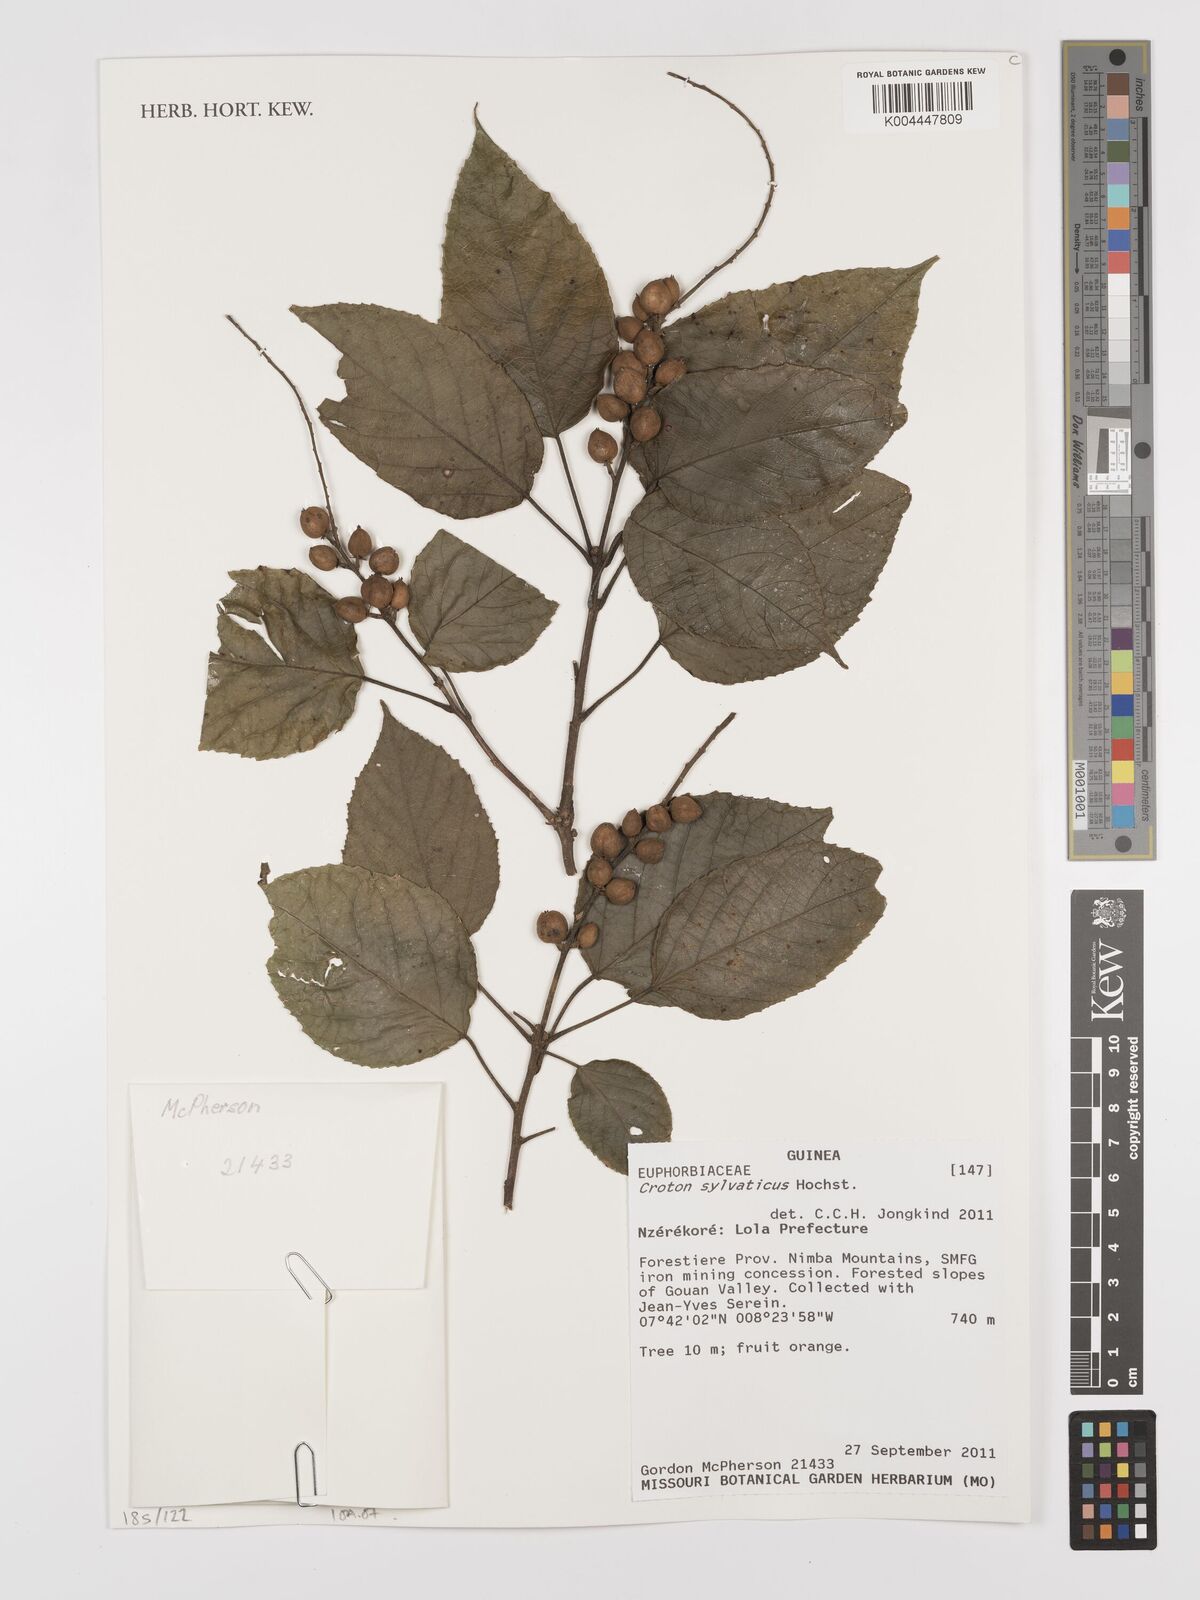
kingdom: Plantae
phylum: Tracheophyta
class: Magnoliopsida
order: Malpighiales
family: Euphorbiaceae
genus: Croton
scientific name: Croton
